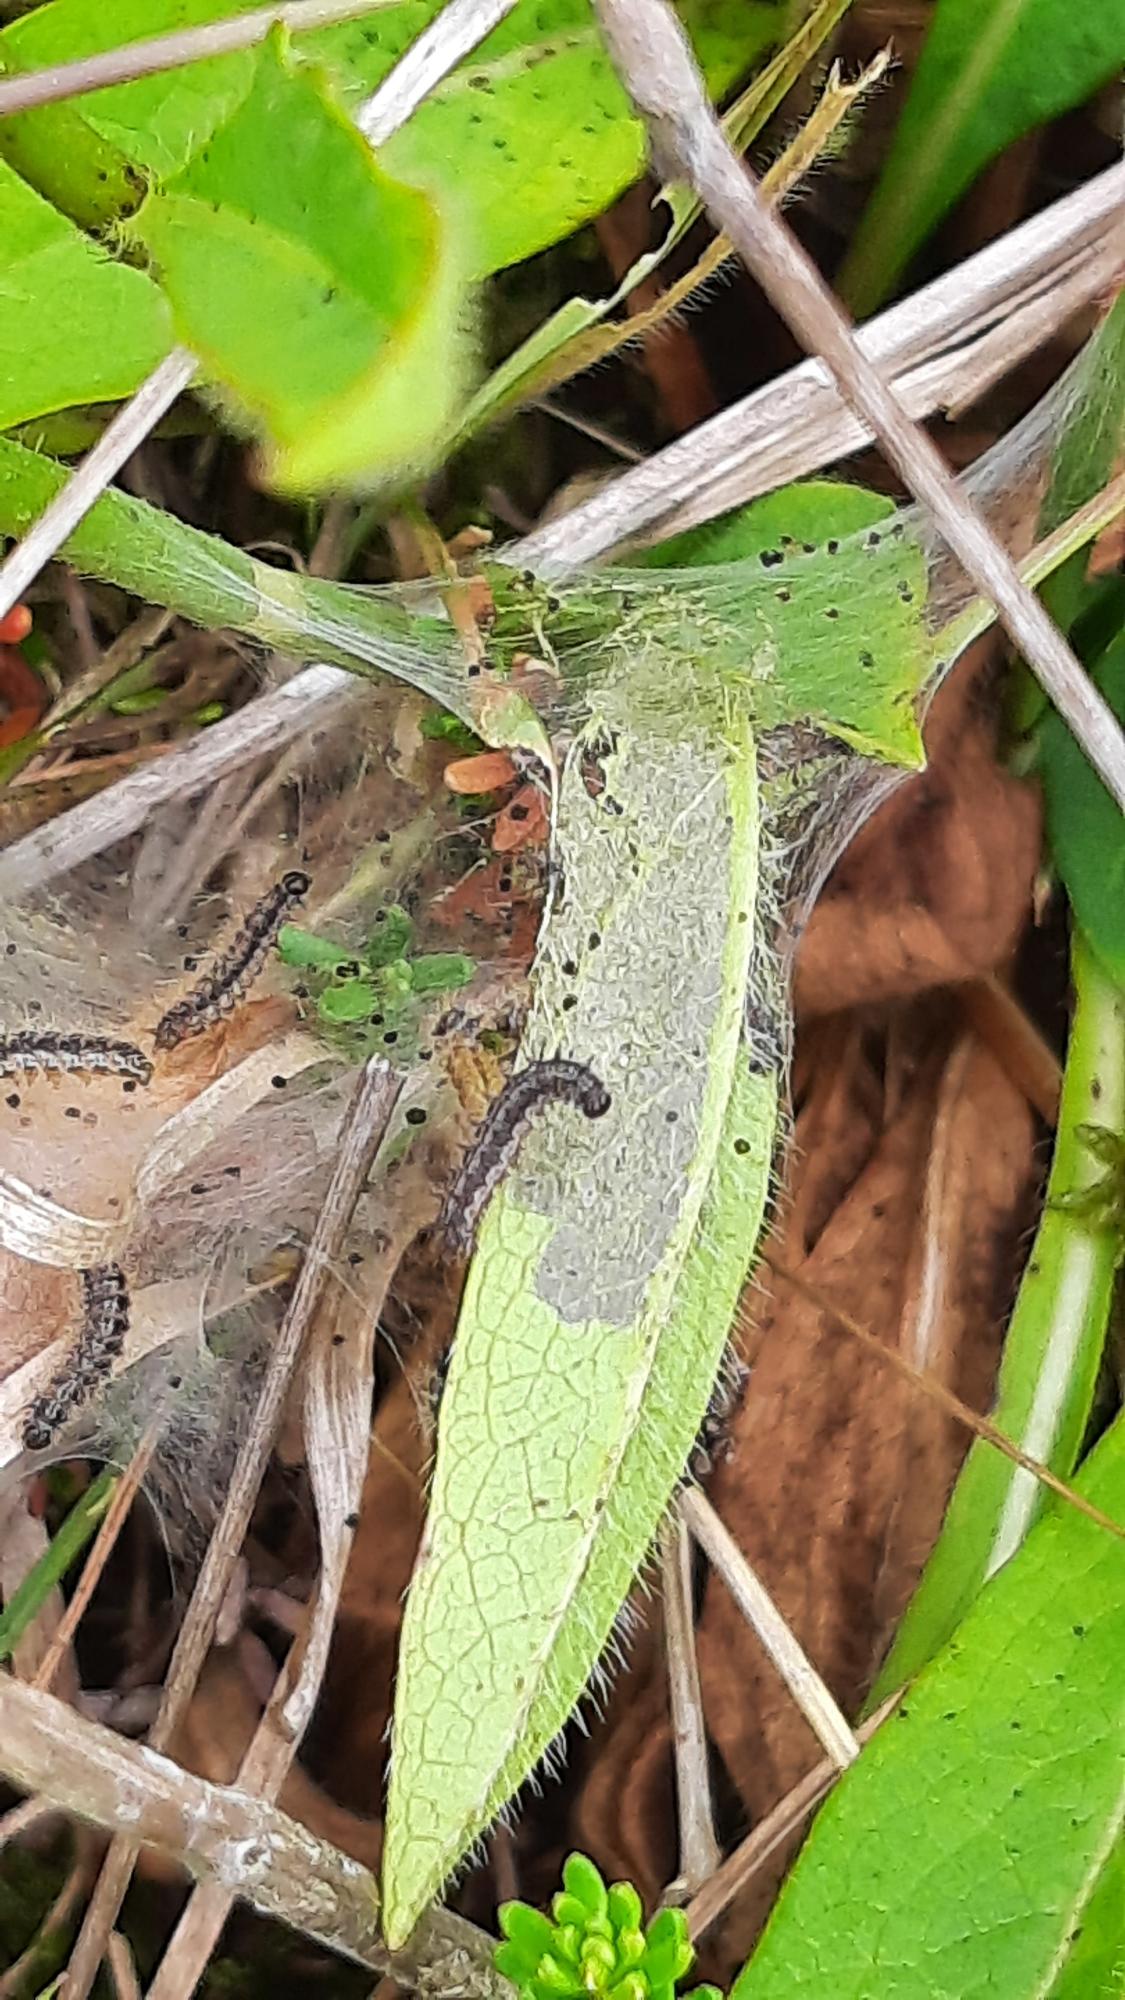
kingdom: Animalia
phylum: Arthropoda
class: Insecta
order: Lepidoptera
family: Nymphalidae
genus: Euphydryas
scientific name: Euphydryas aurinia
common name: Hedepletvinge
